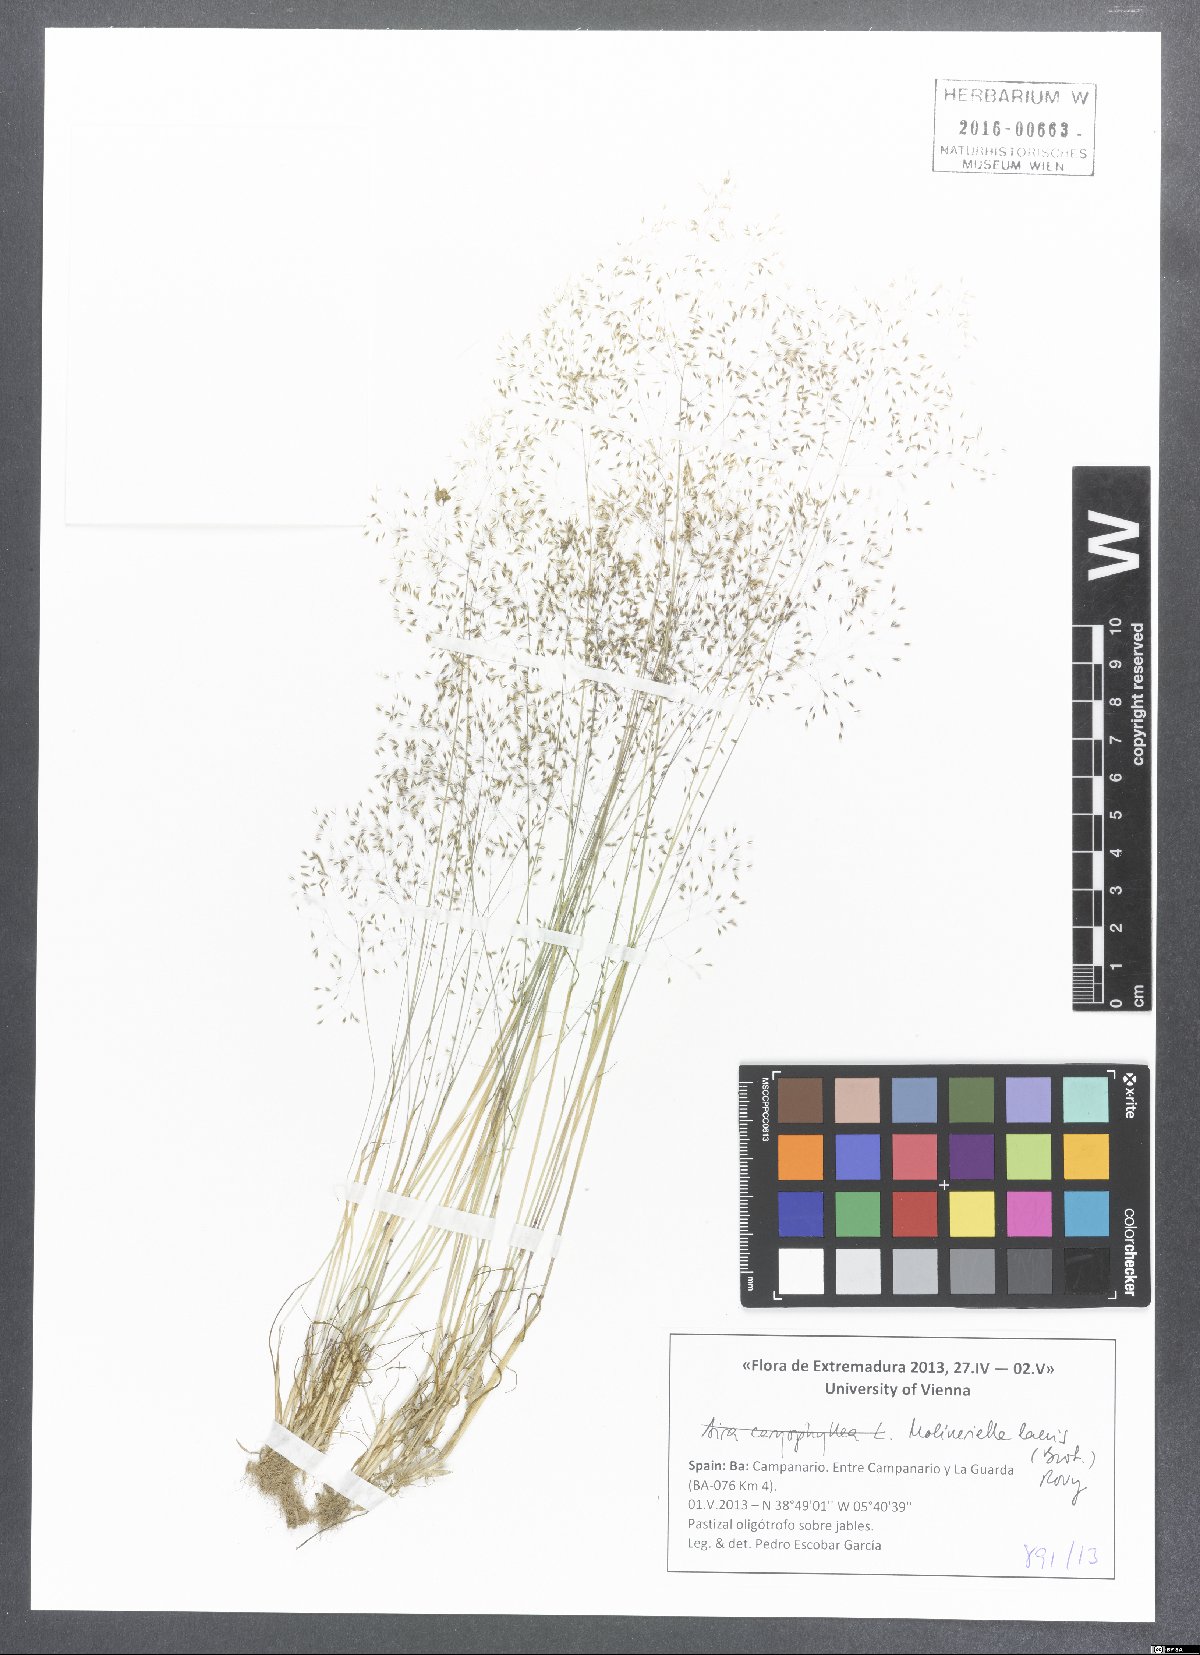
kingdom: Plantae
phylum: Tracheophyta
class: Liliopsida
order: Poales
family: Poaceae
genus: Molineriella
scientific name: Molineriella laevis
